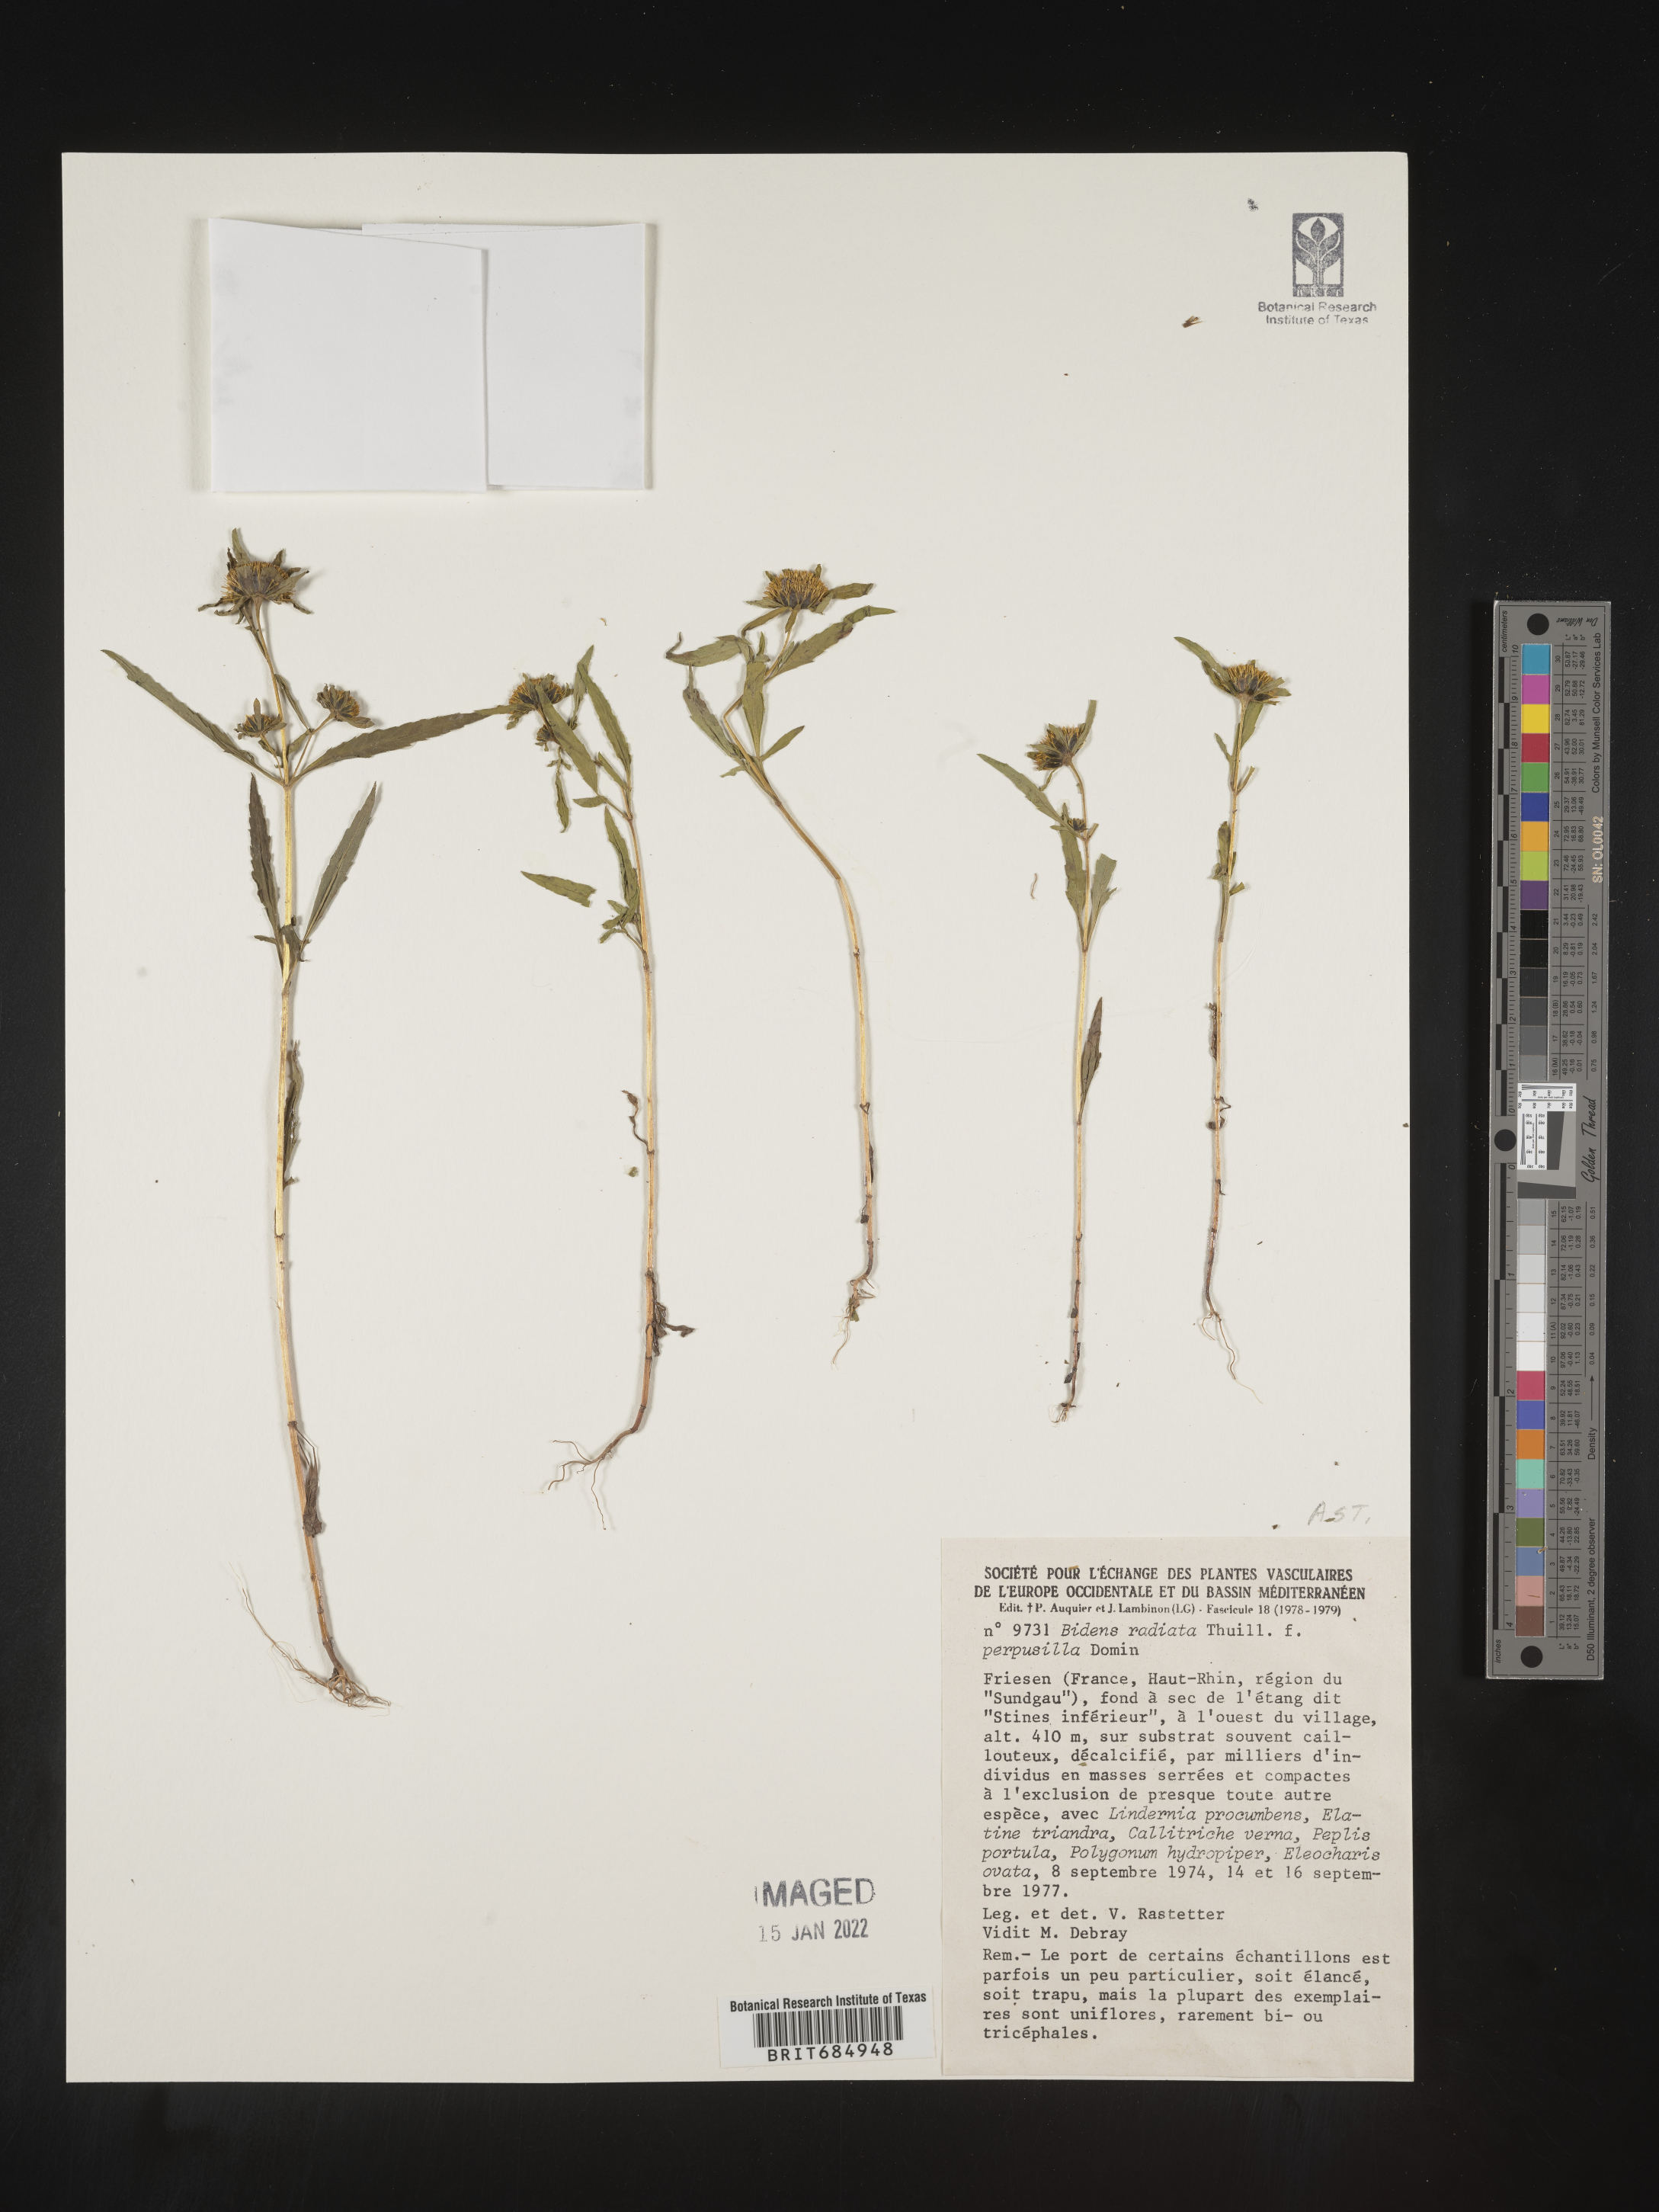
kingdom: Plantae
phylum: Tracheophyta
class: Magnoliopsida
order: Asterales
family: Asteraceae
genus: Bidens
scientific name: Bidens
